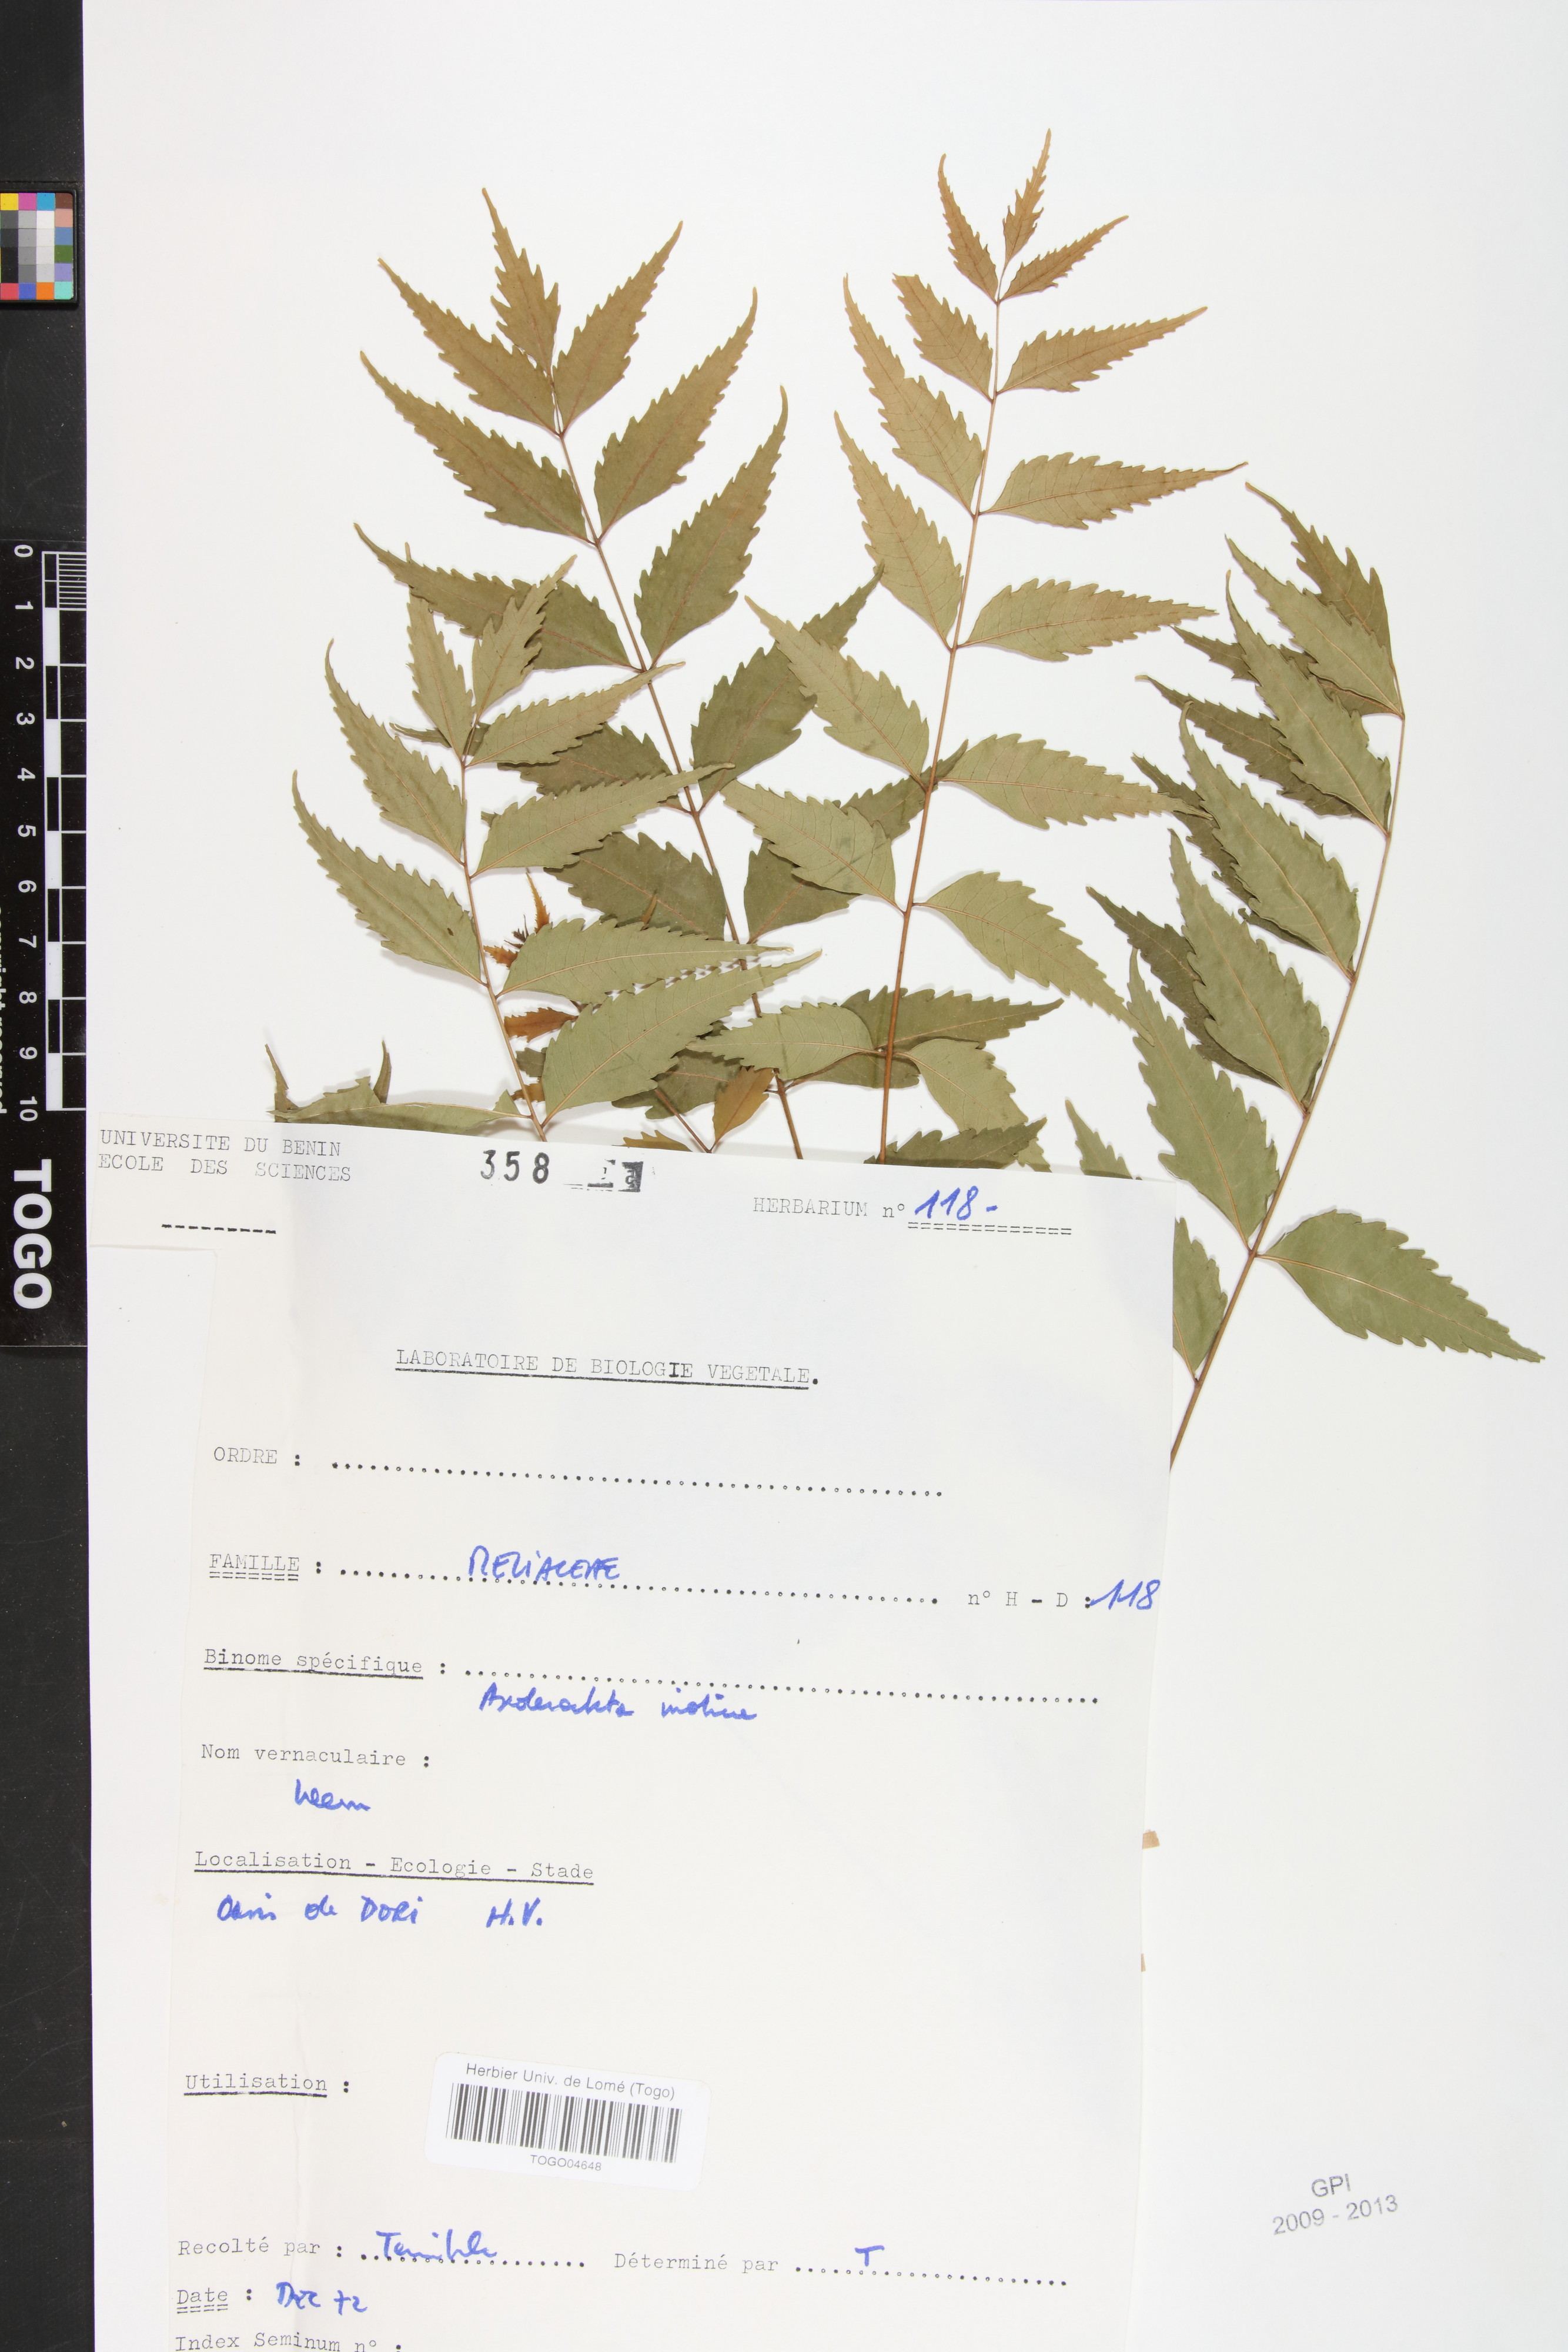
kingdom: Plantae
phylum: Tracheophyta
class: Magnoliopsida
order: Sapindales
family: Meliaceae
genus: Azadirachta
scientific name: Azadirachta indica
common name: neem
